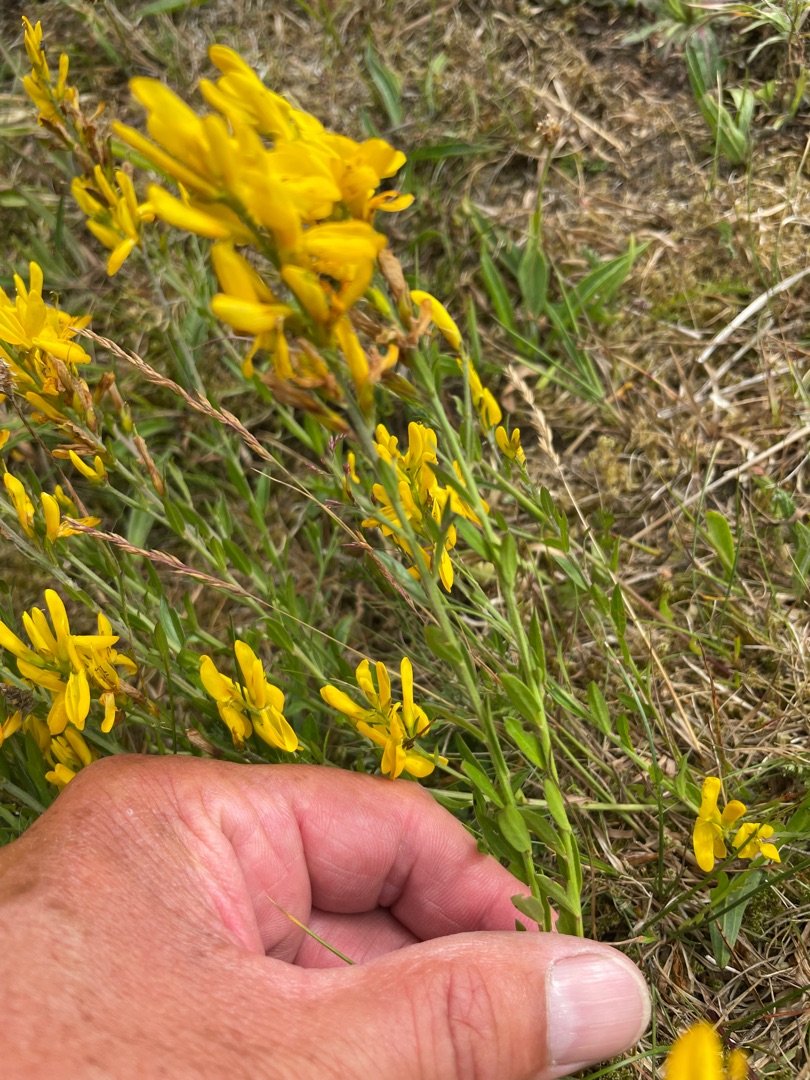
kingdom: Plantae
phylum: Tracheophyta
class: Magnoliopsida
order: Fabales
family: Fabaceae
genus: Genista
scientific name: Genista tinctoria
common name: Farve-visse
